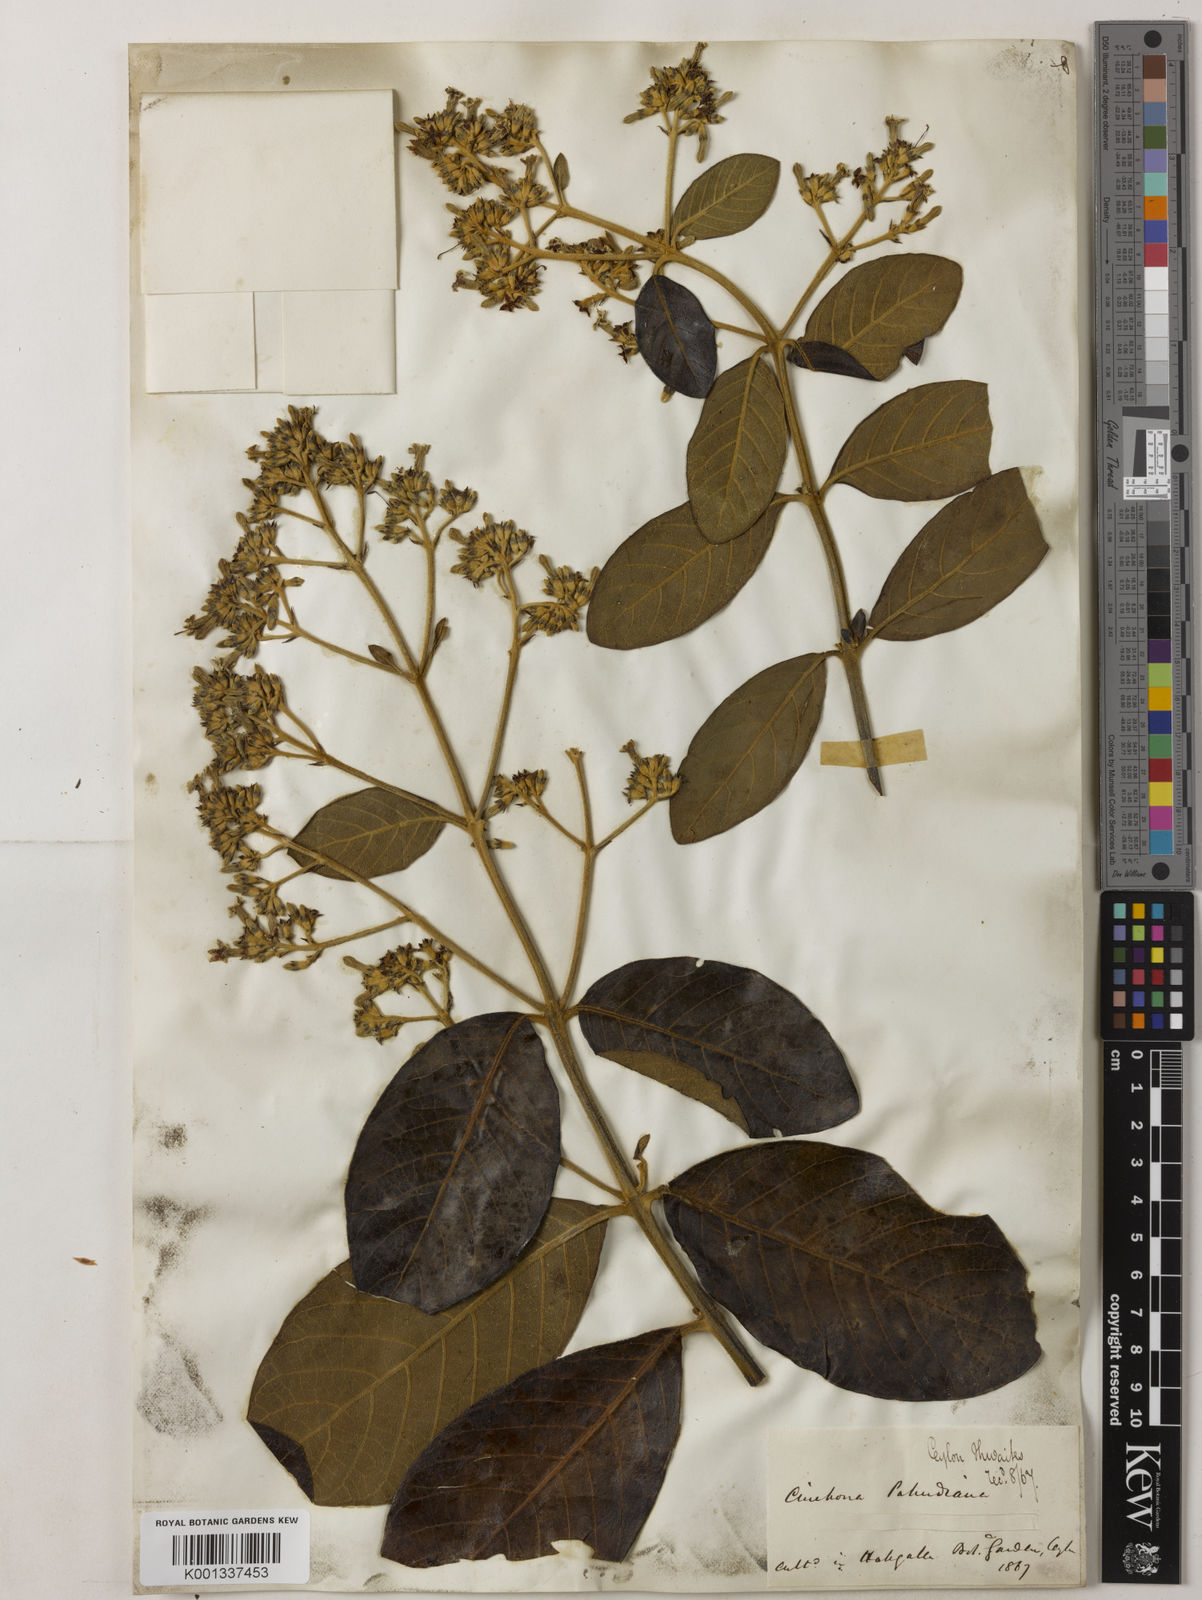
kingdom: Plantae
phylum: Tracheophyta
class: Magnoliopsida
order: Gentianales
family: Rubiaceae
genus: Cinchona
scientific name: Cinchona calisaya
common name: Ledgerbark
